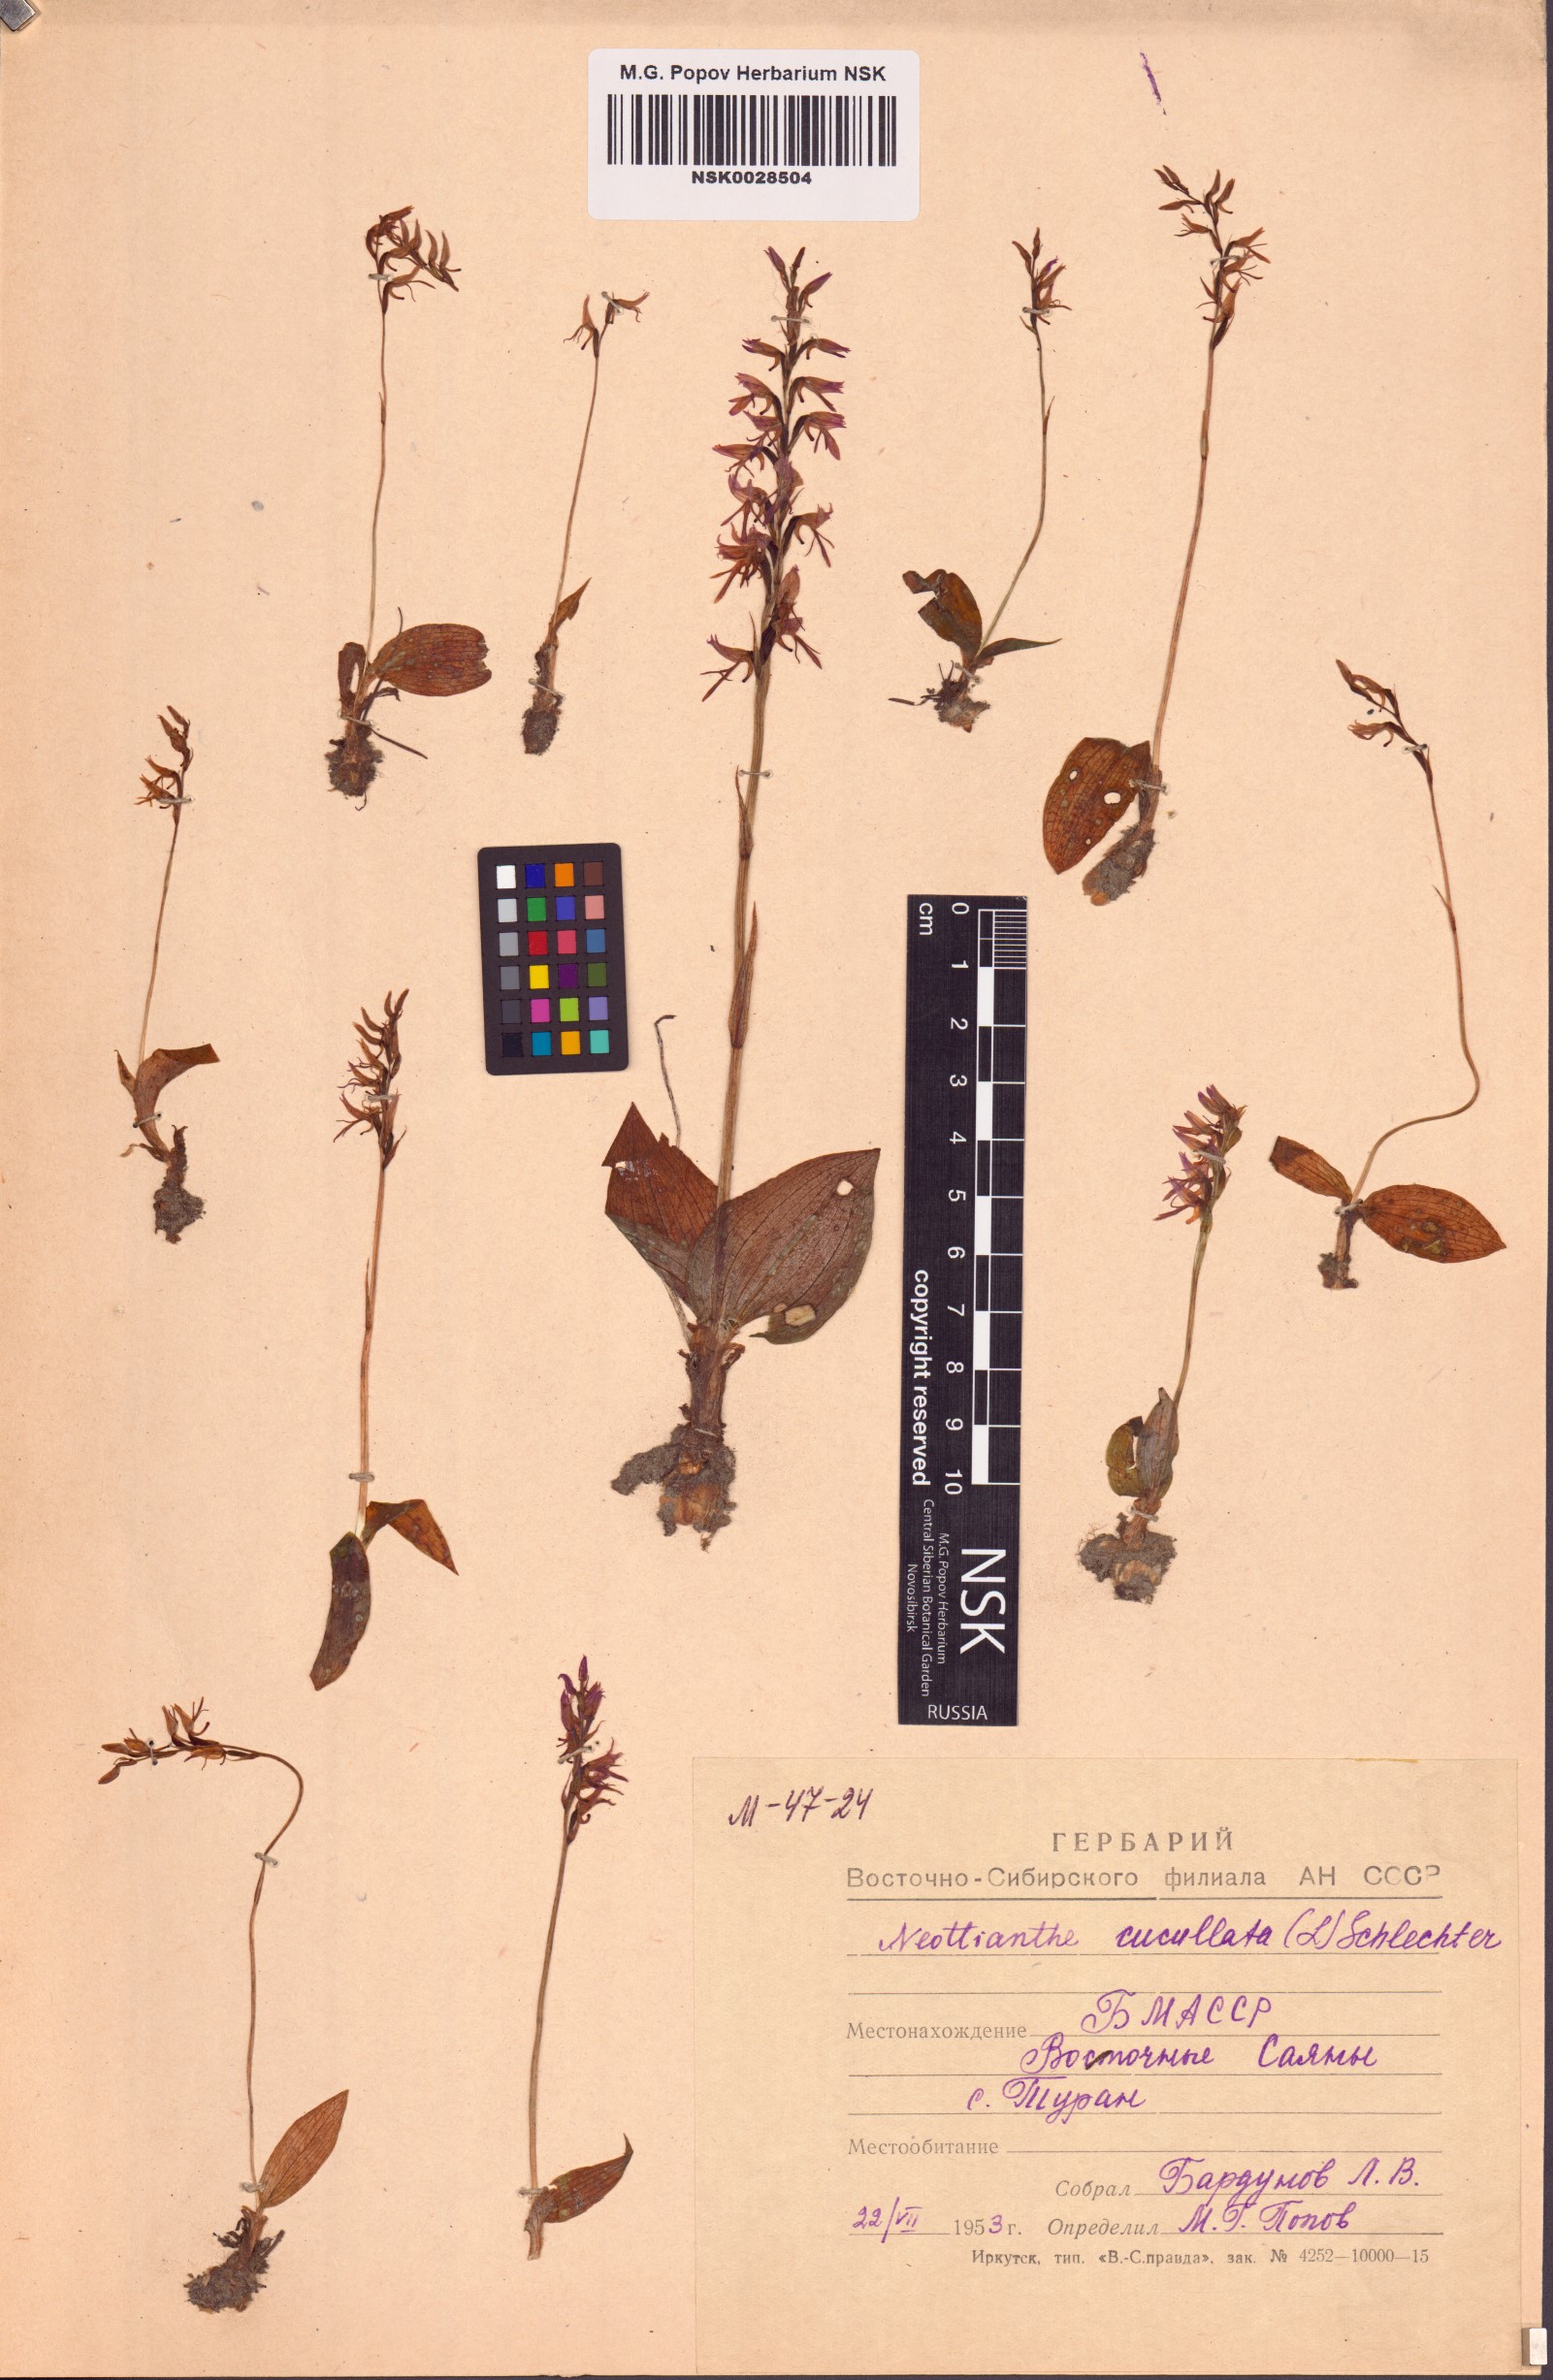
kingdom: Plantae
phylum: Tracheophyta
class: Liliopsida
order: Asparagales
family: Orchidaceae
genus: Hemipilia
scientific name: Hemipilia cucullata
